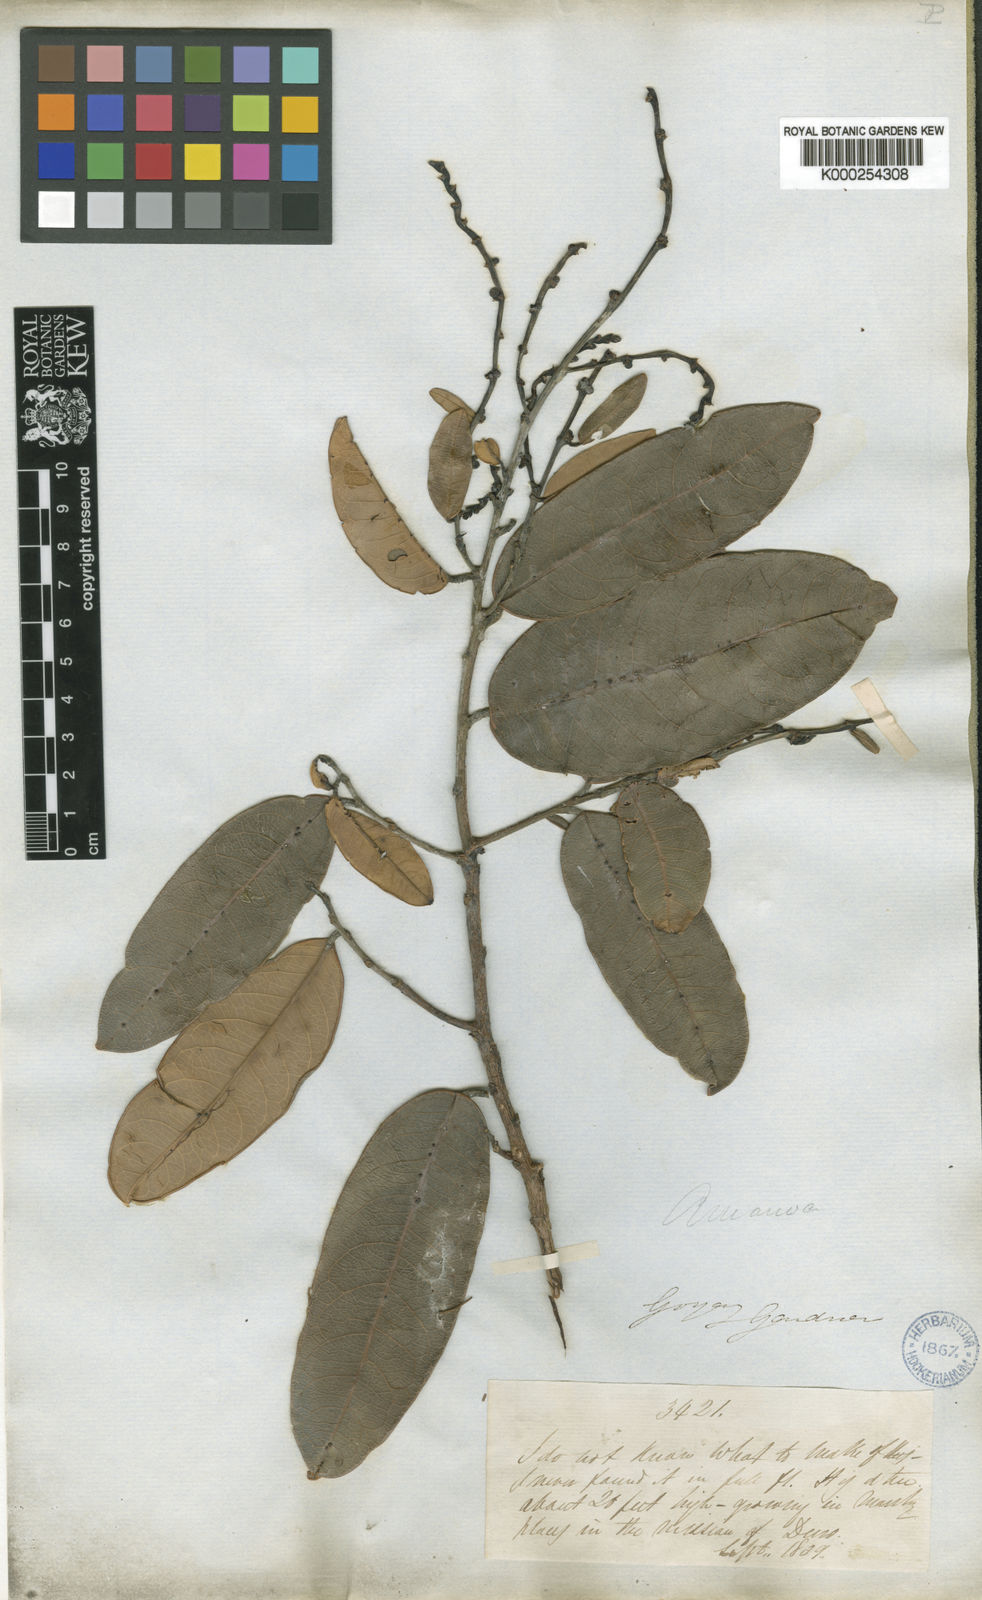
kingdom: Plantae
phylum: Tracheophyta
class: Magnoliopsida
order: Malpighiales
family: Phyllanthaceae
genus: Amanoa
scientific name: Amanoa glaucophylla
